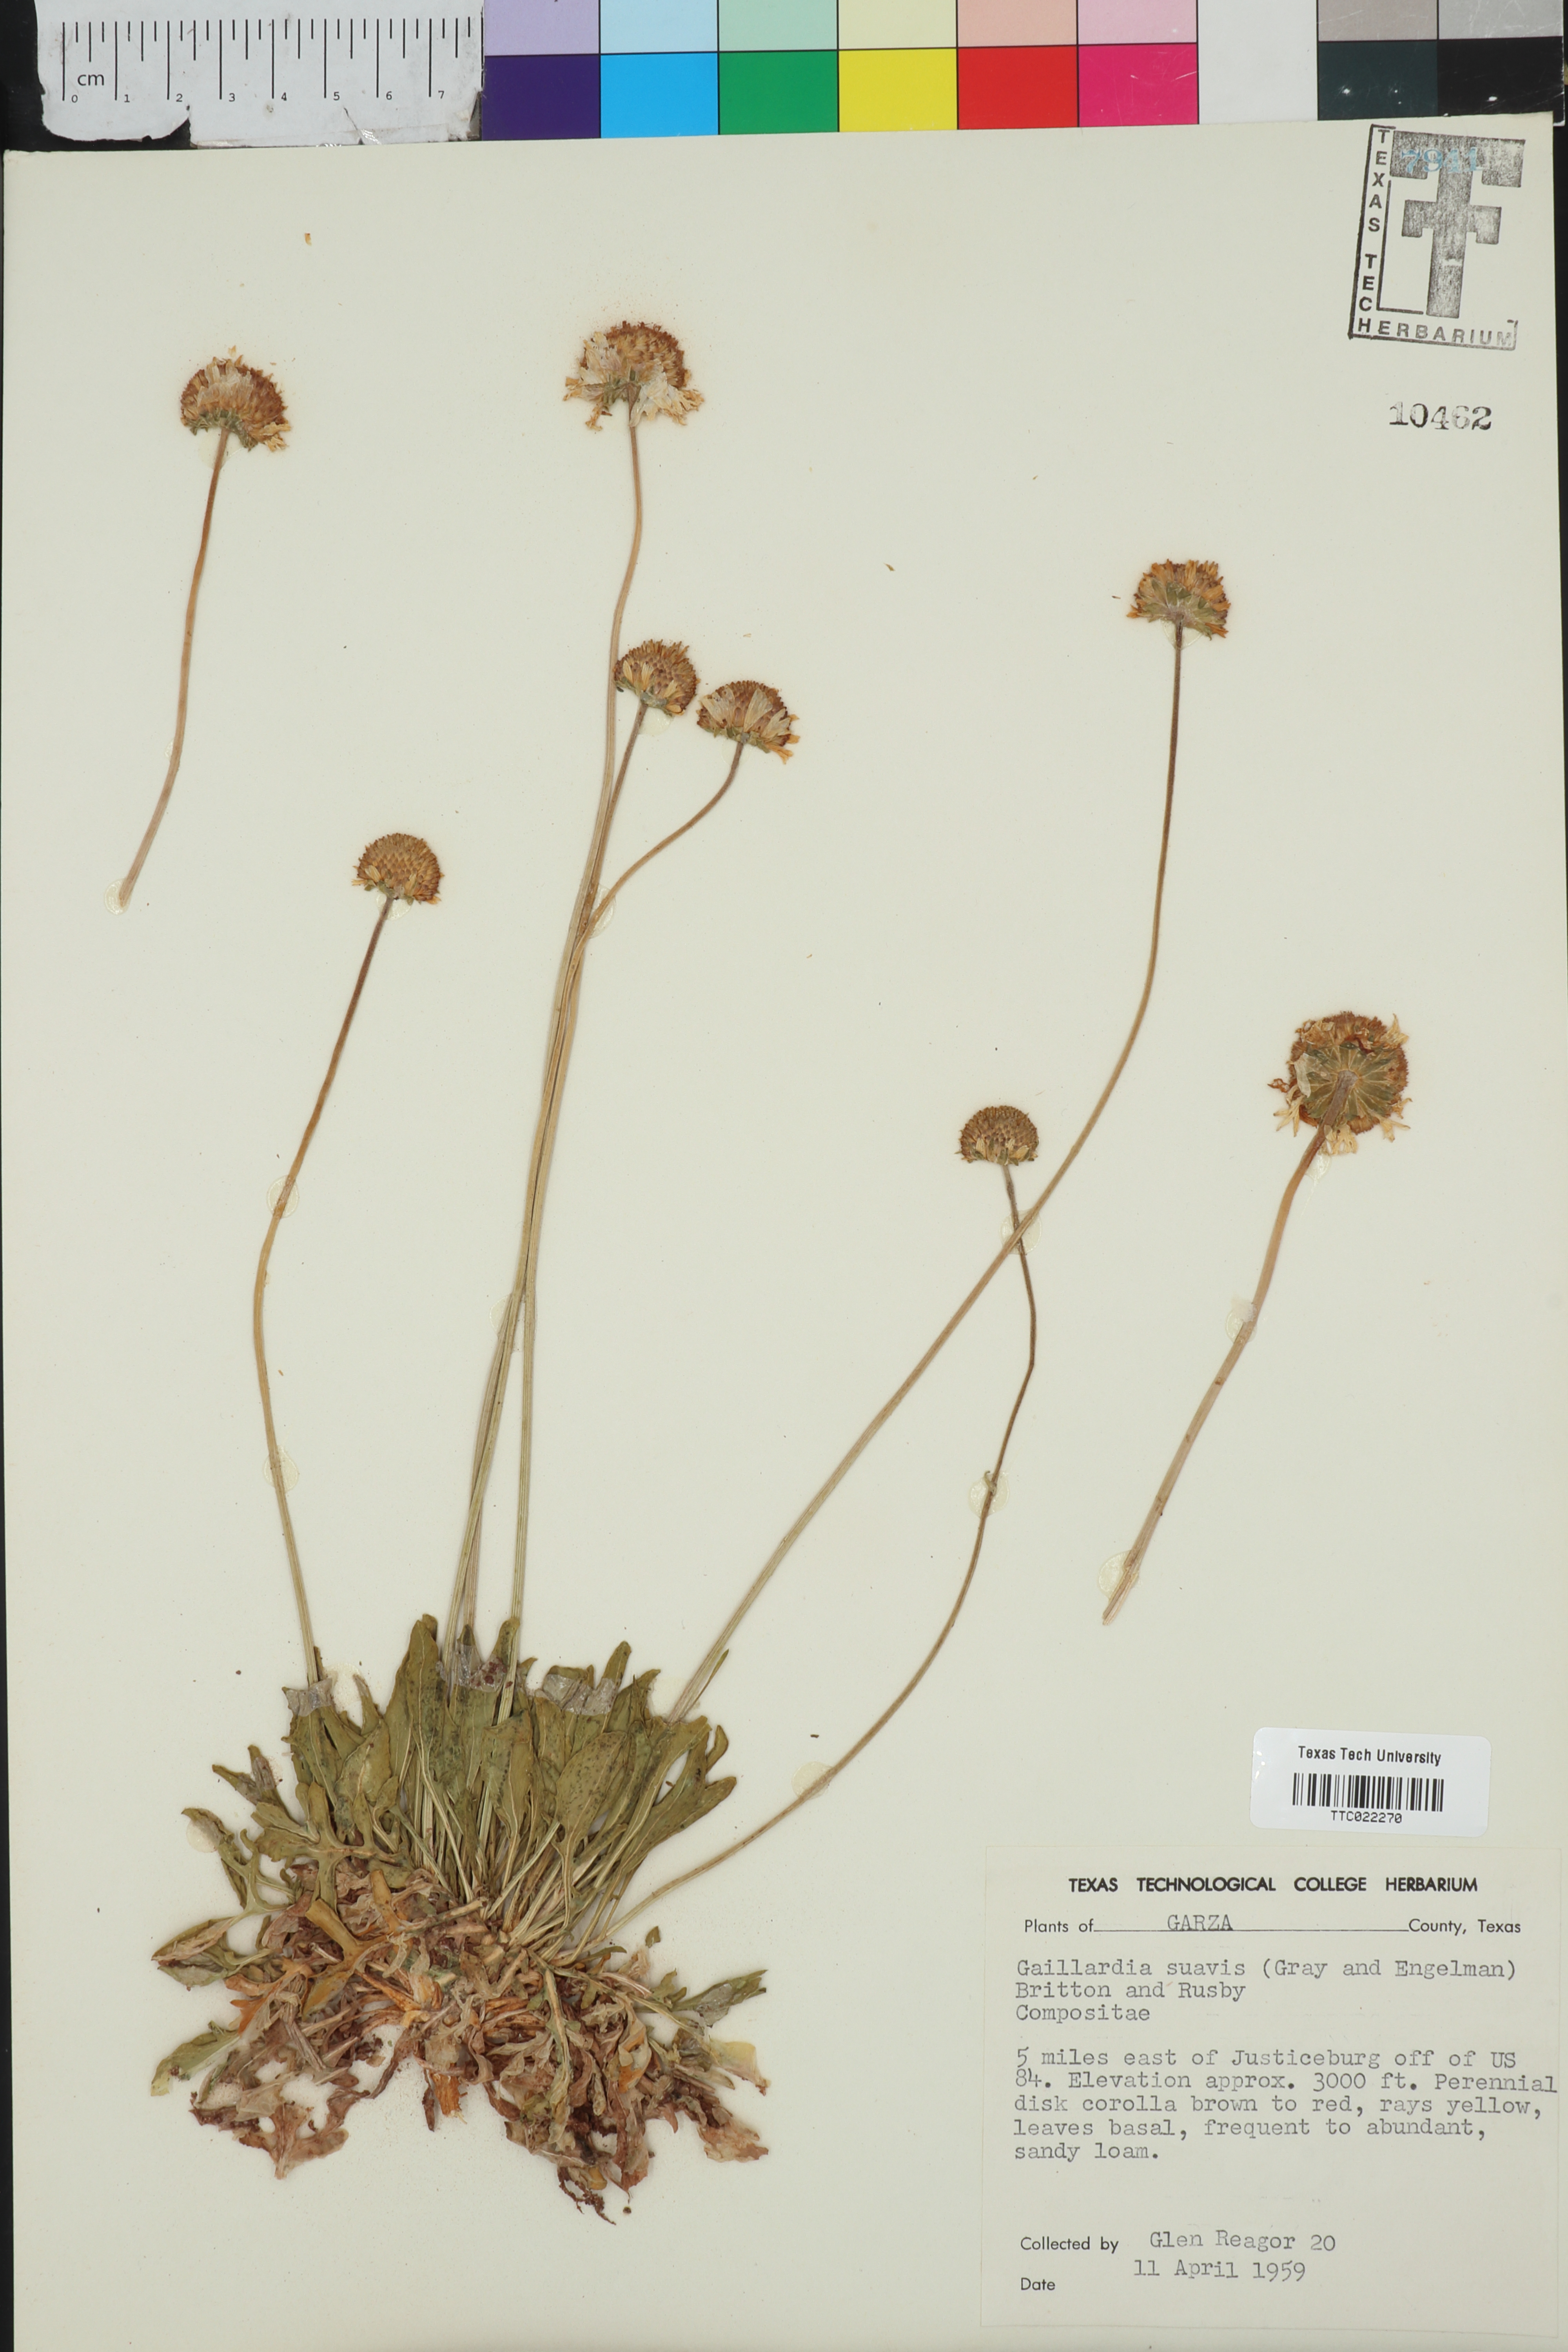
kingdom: Plantae
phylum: Tracheophyta
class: Magnoliopsida
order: Asterales
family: Asteraceae
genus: Gaillardia
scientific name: Gaillardia suavis
